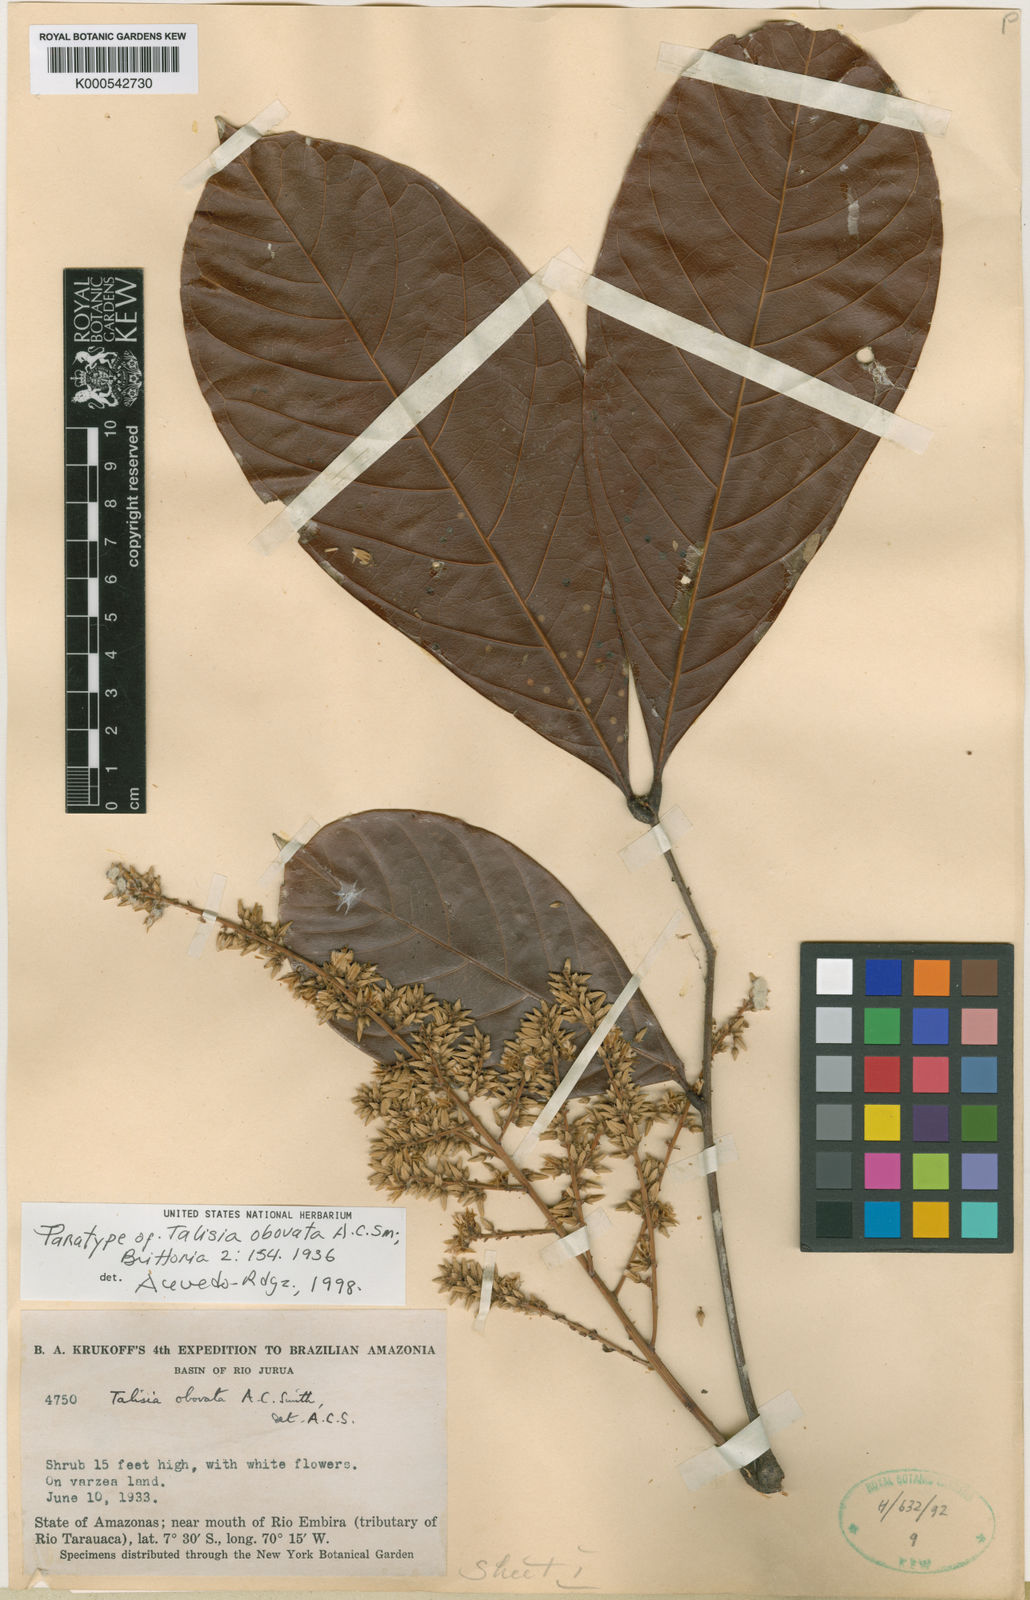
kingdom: Plantae
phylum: Tracheophyta
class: Magnoliopsida
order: Sapindales
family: Sapindaceae
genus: Talisia
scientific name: Talisia obovata
